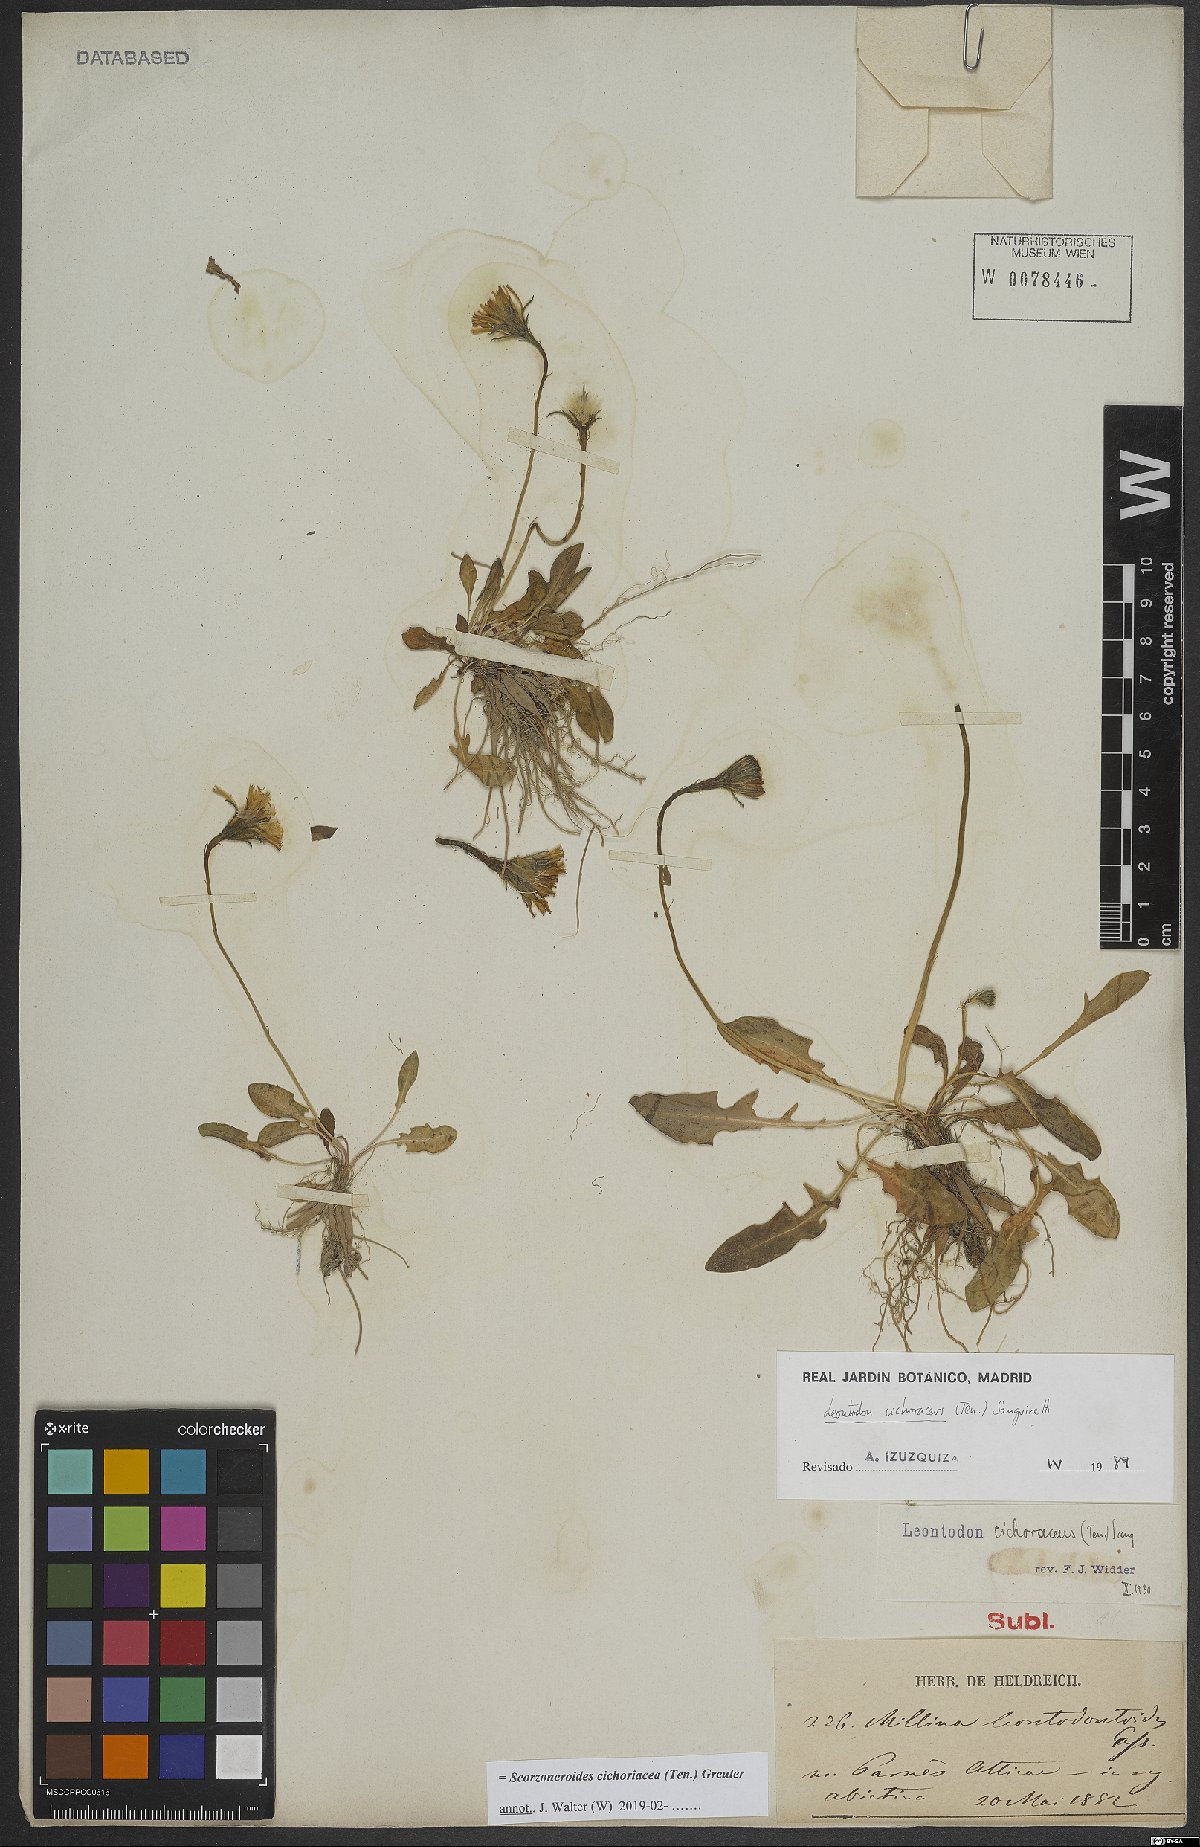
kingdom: Plantae
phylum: Tracheophyta
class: Magnoliopsida
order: Asterales
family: Asteraceae
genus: Scorzoneroides
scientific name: Scorzoneroides cichoriacea
